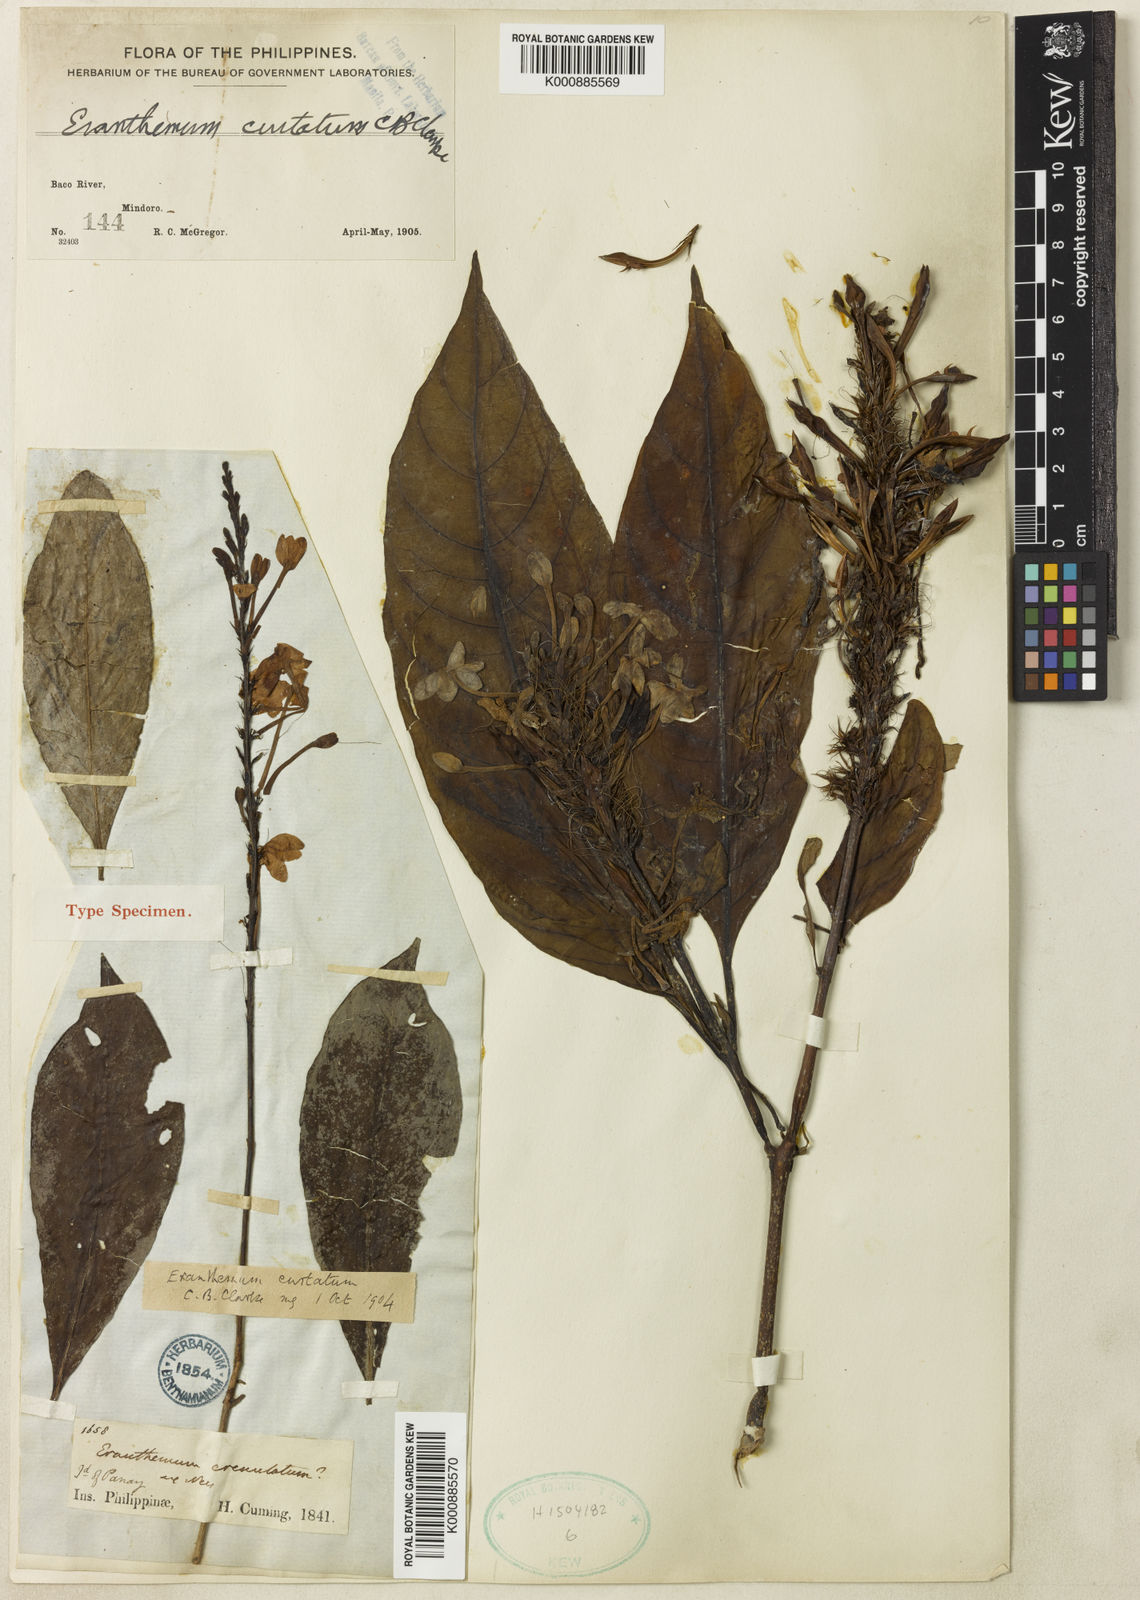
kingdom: Plantae
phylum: Tracheophyta
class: Magnoliopsida
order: Lamiales
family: Acanthaceae
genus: Pseuderanthemum
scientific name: Pseuderanthemum curtatum
